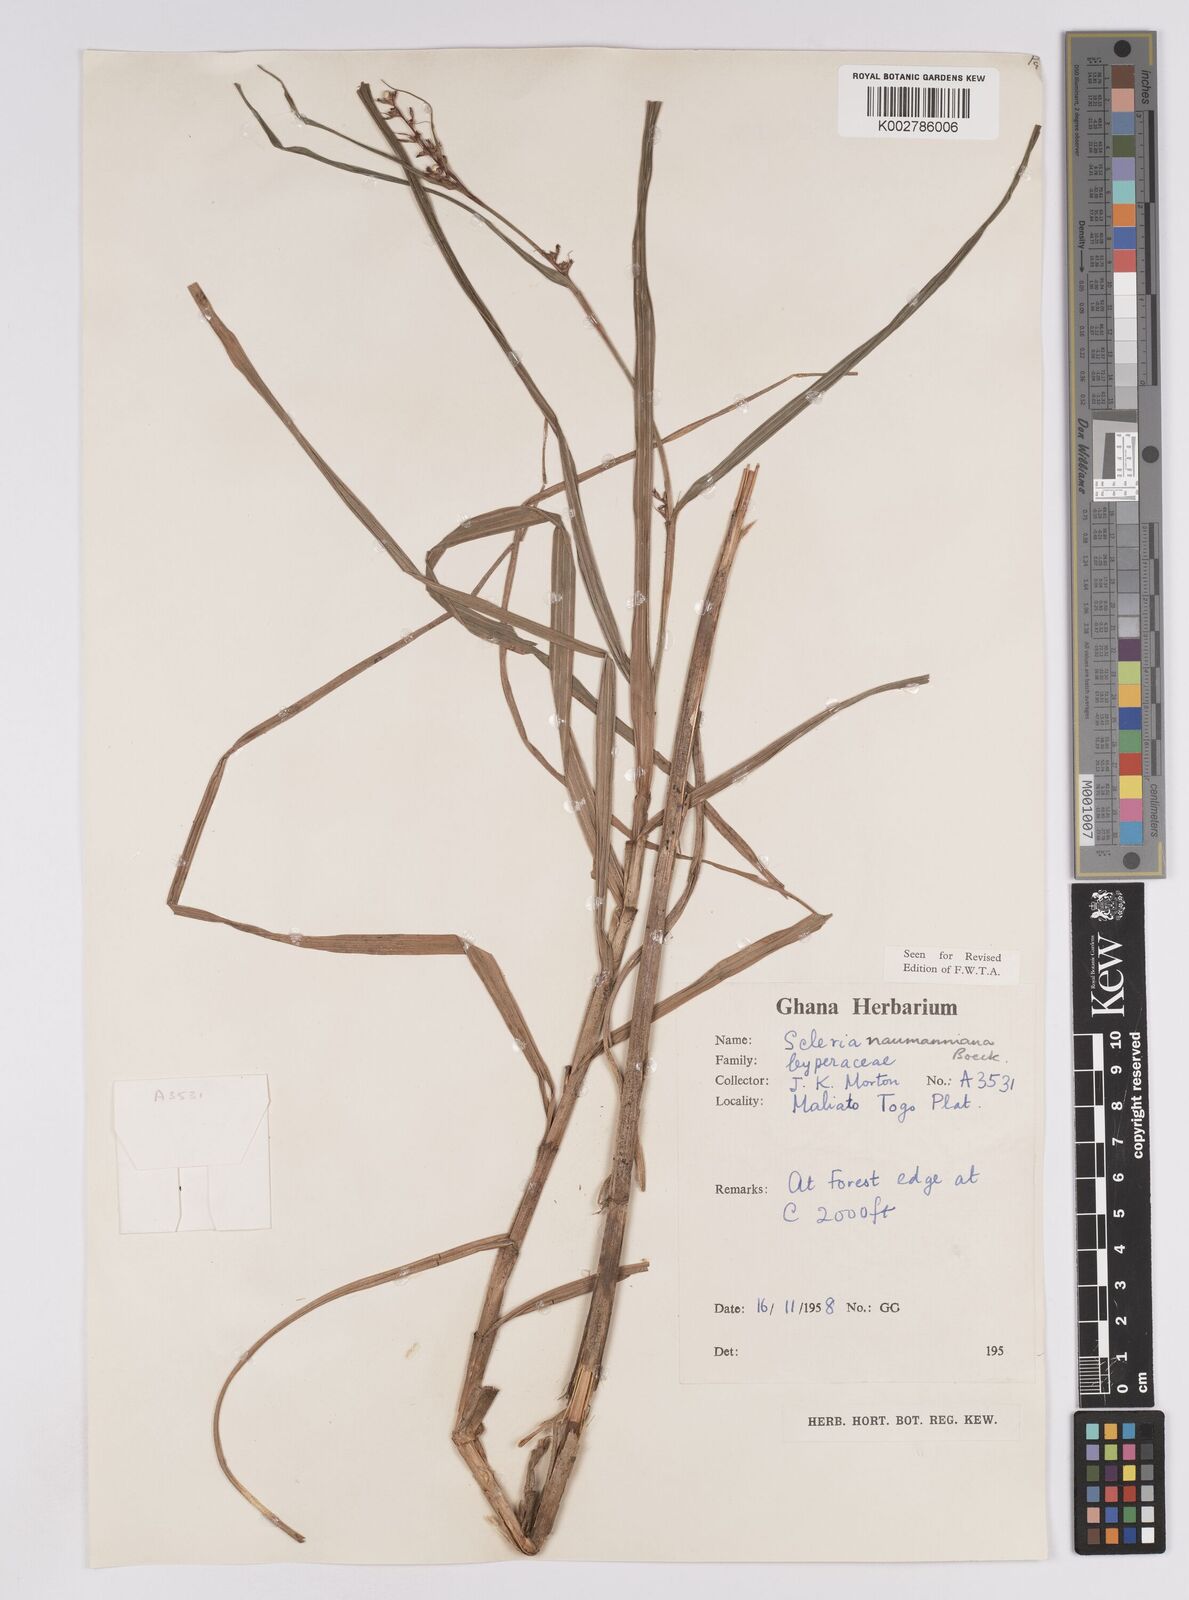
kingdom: Plantae
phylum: Tracheophyta
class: Liliopsida
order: Poales
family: Cyperaceae
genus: Scleria
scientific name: Scleria naumanniana
